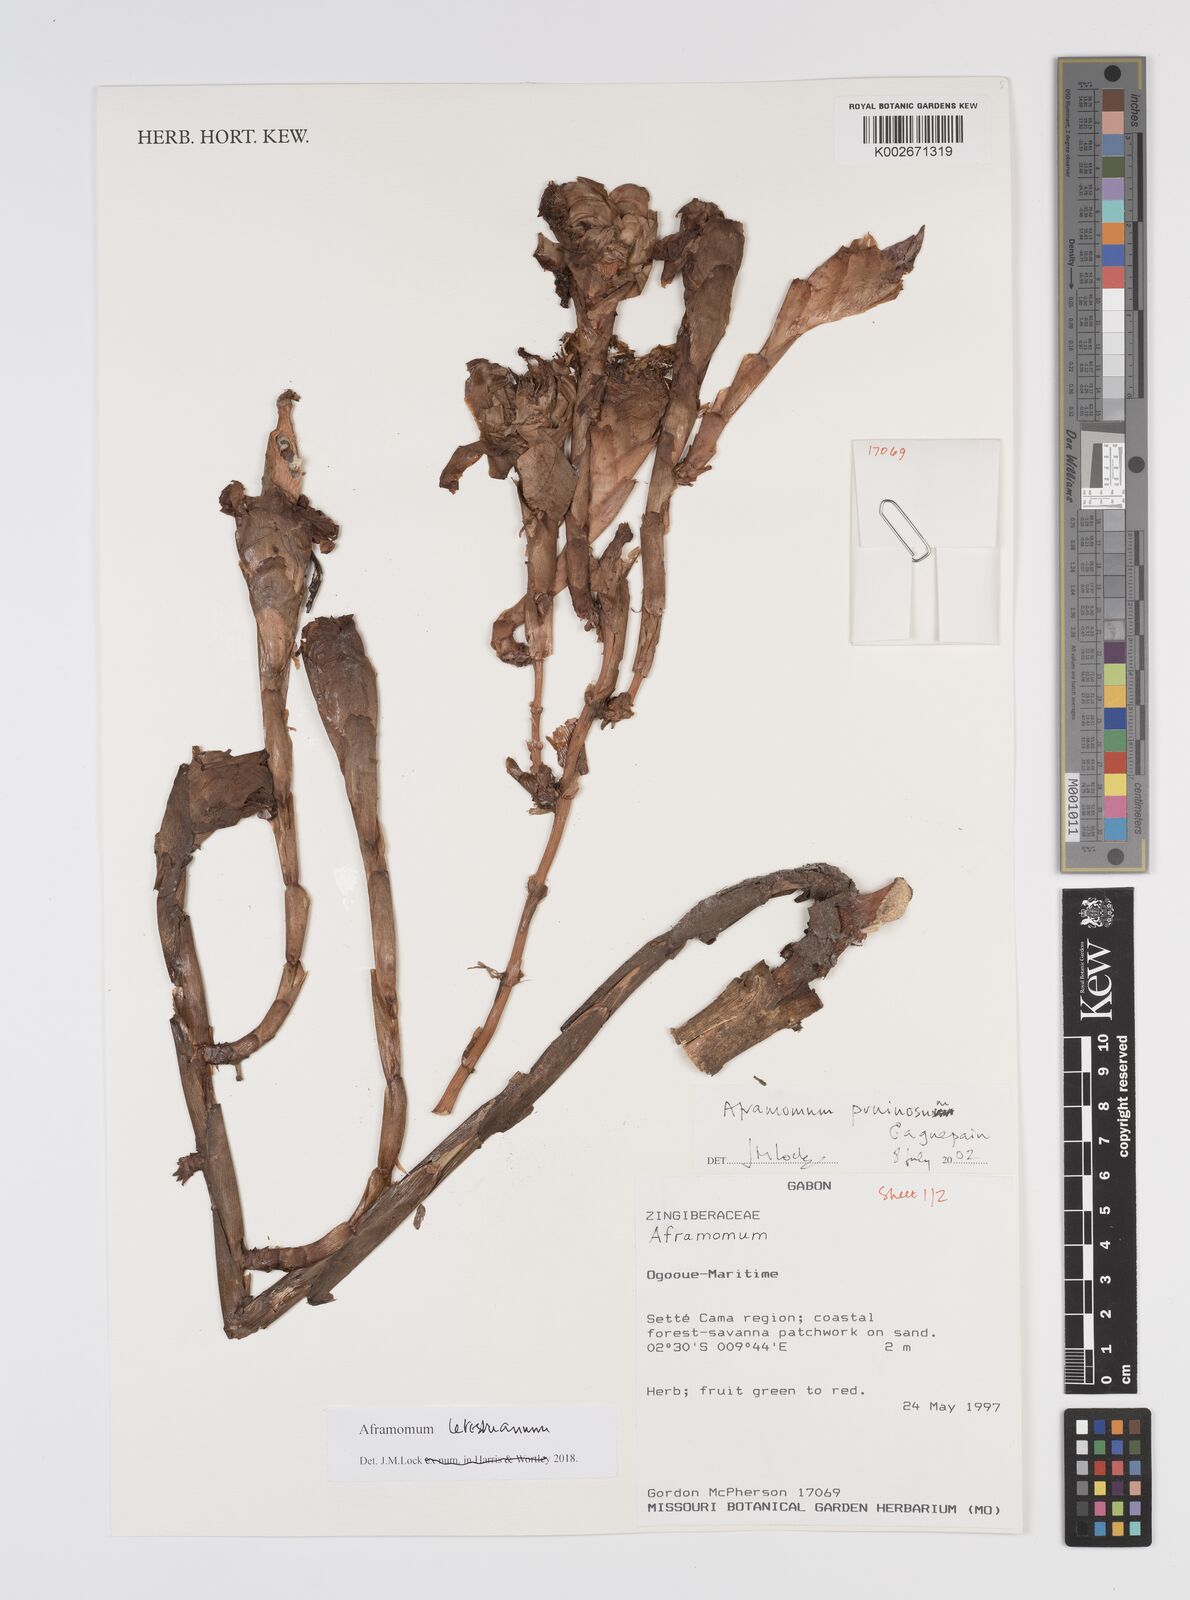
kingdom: Plantae
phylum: Tracheophyta
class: Liliopsida
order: Zingiberales
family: Zingiberaceae
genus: Aframomum
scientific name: Aframomum letestuanum
